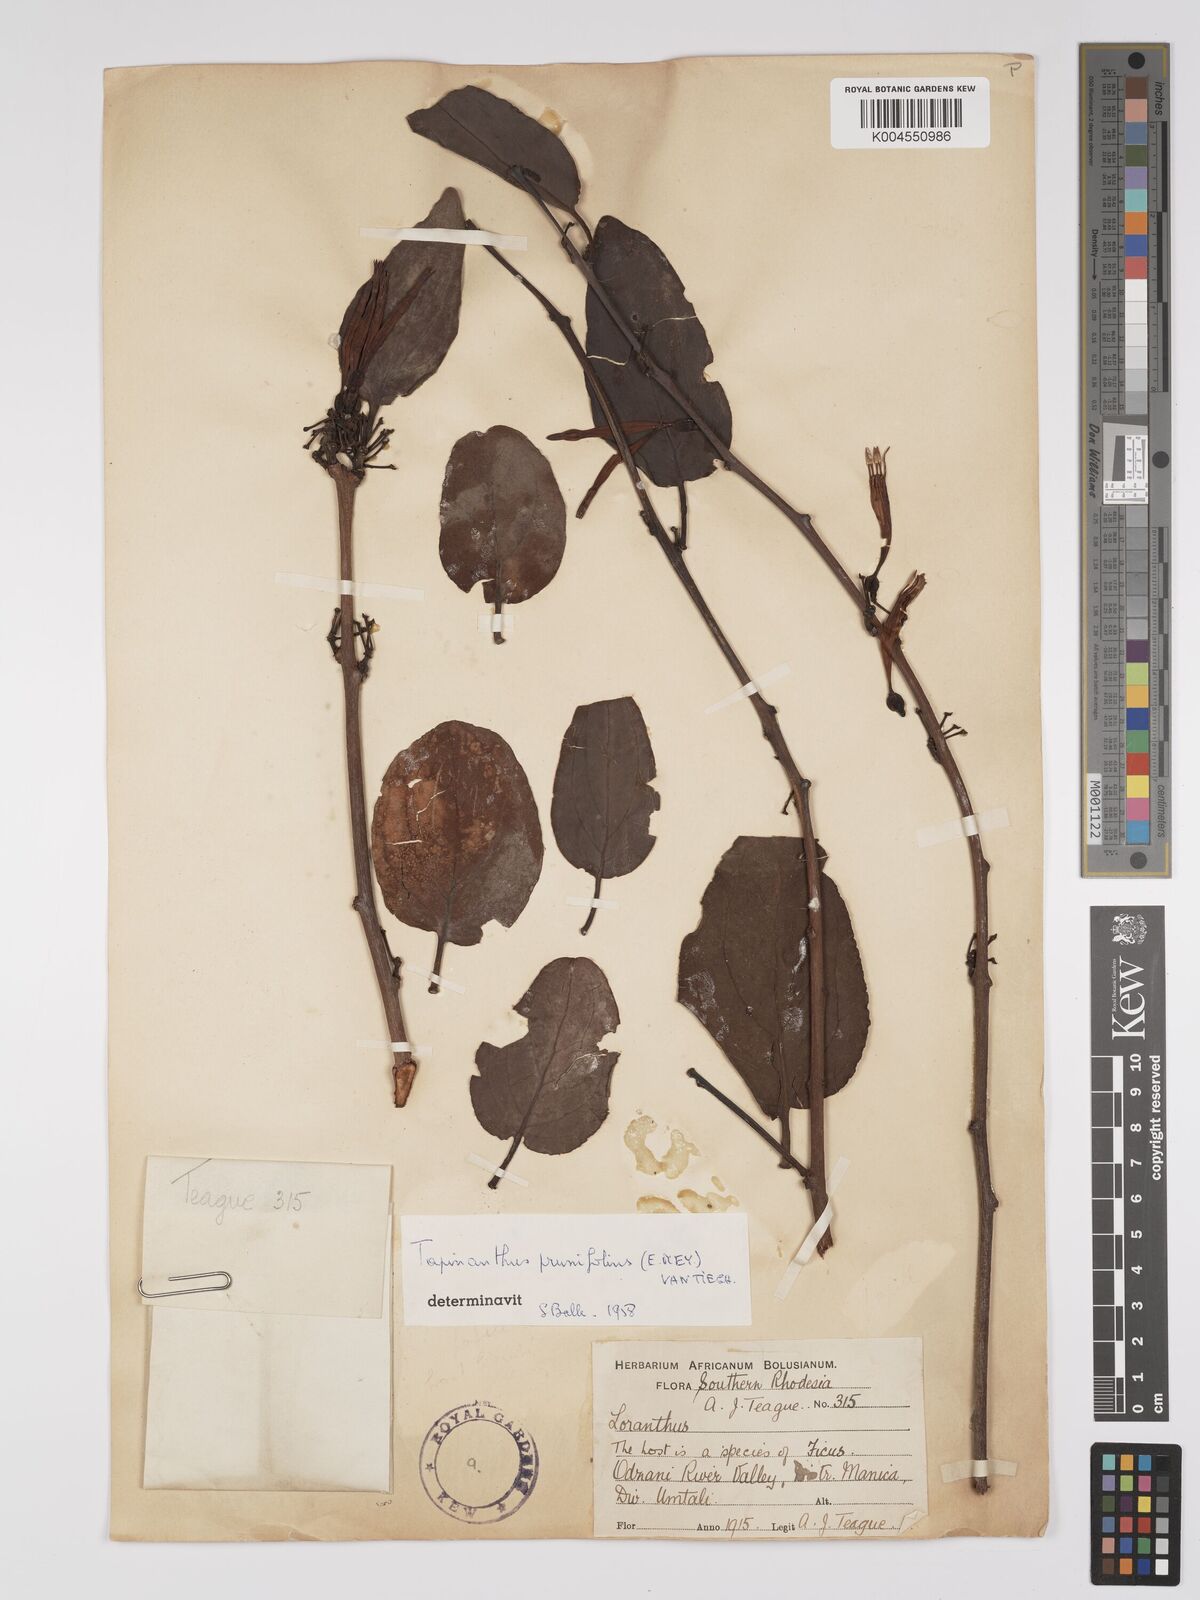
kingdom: Plantae
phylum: Tracheophyta
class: Magnoliopsida
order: Santalales
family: Loranthaceae
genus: Agelanthus
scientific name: Agelanthus flammeus
